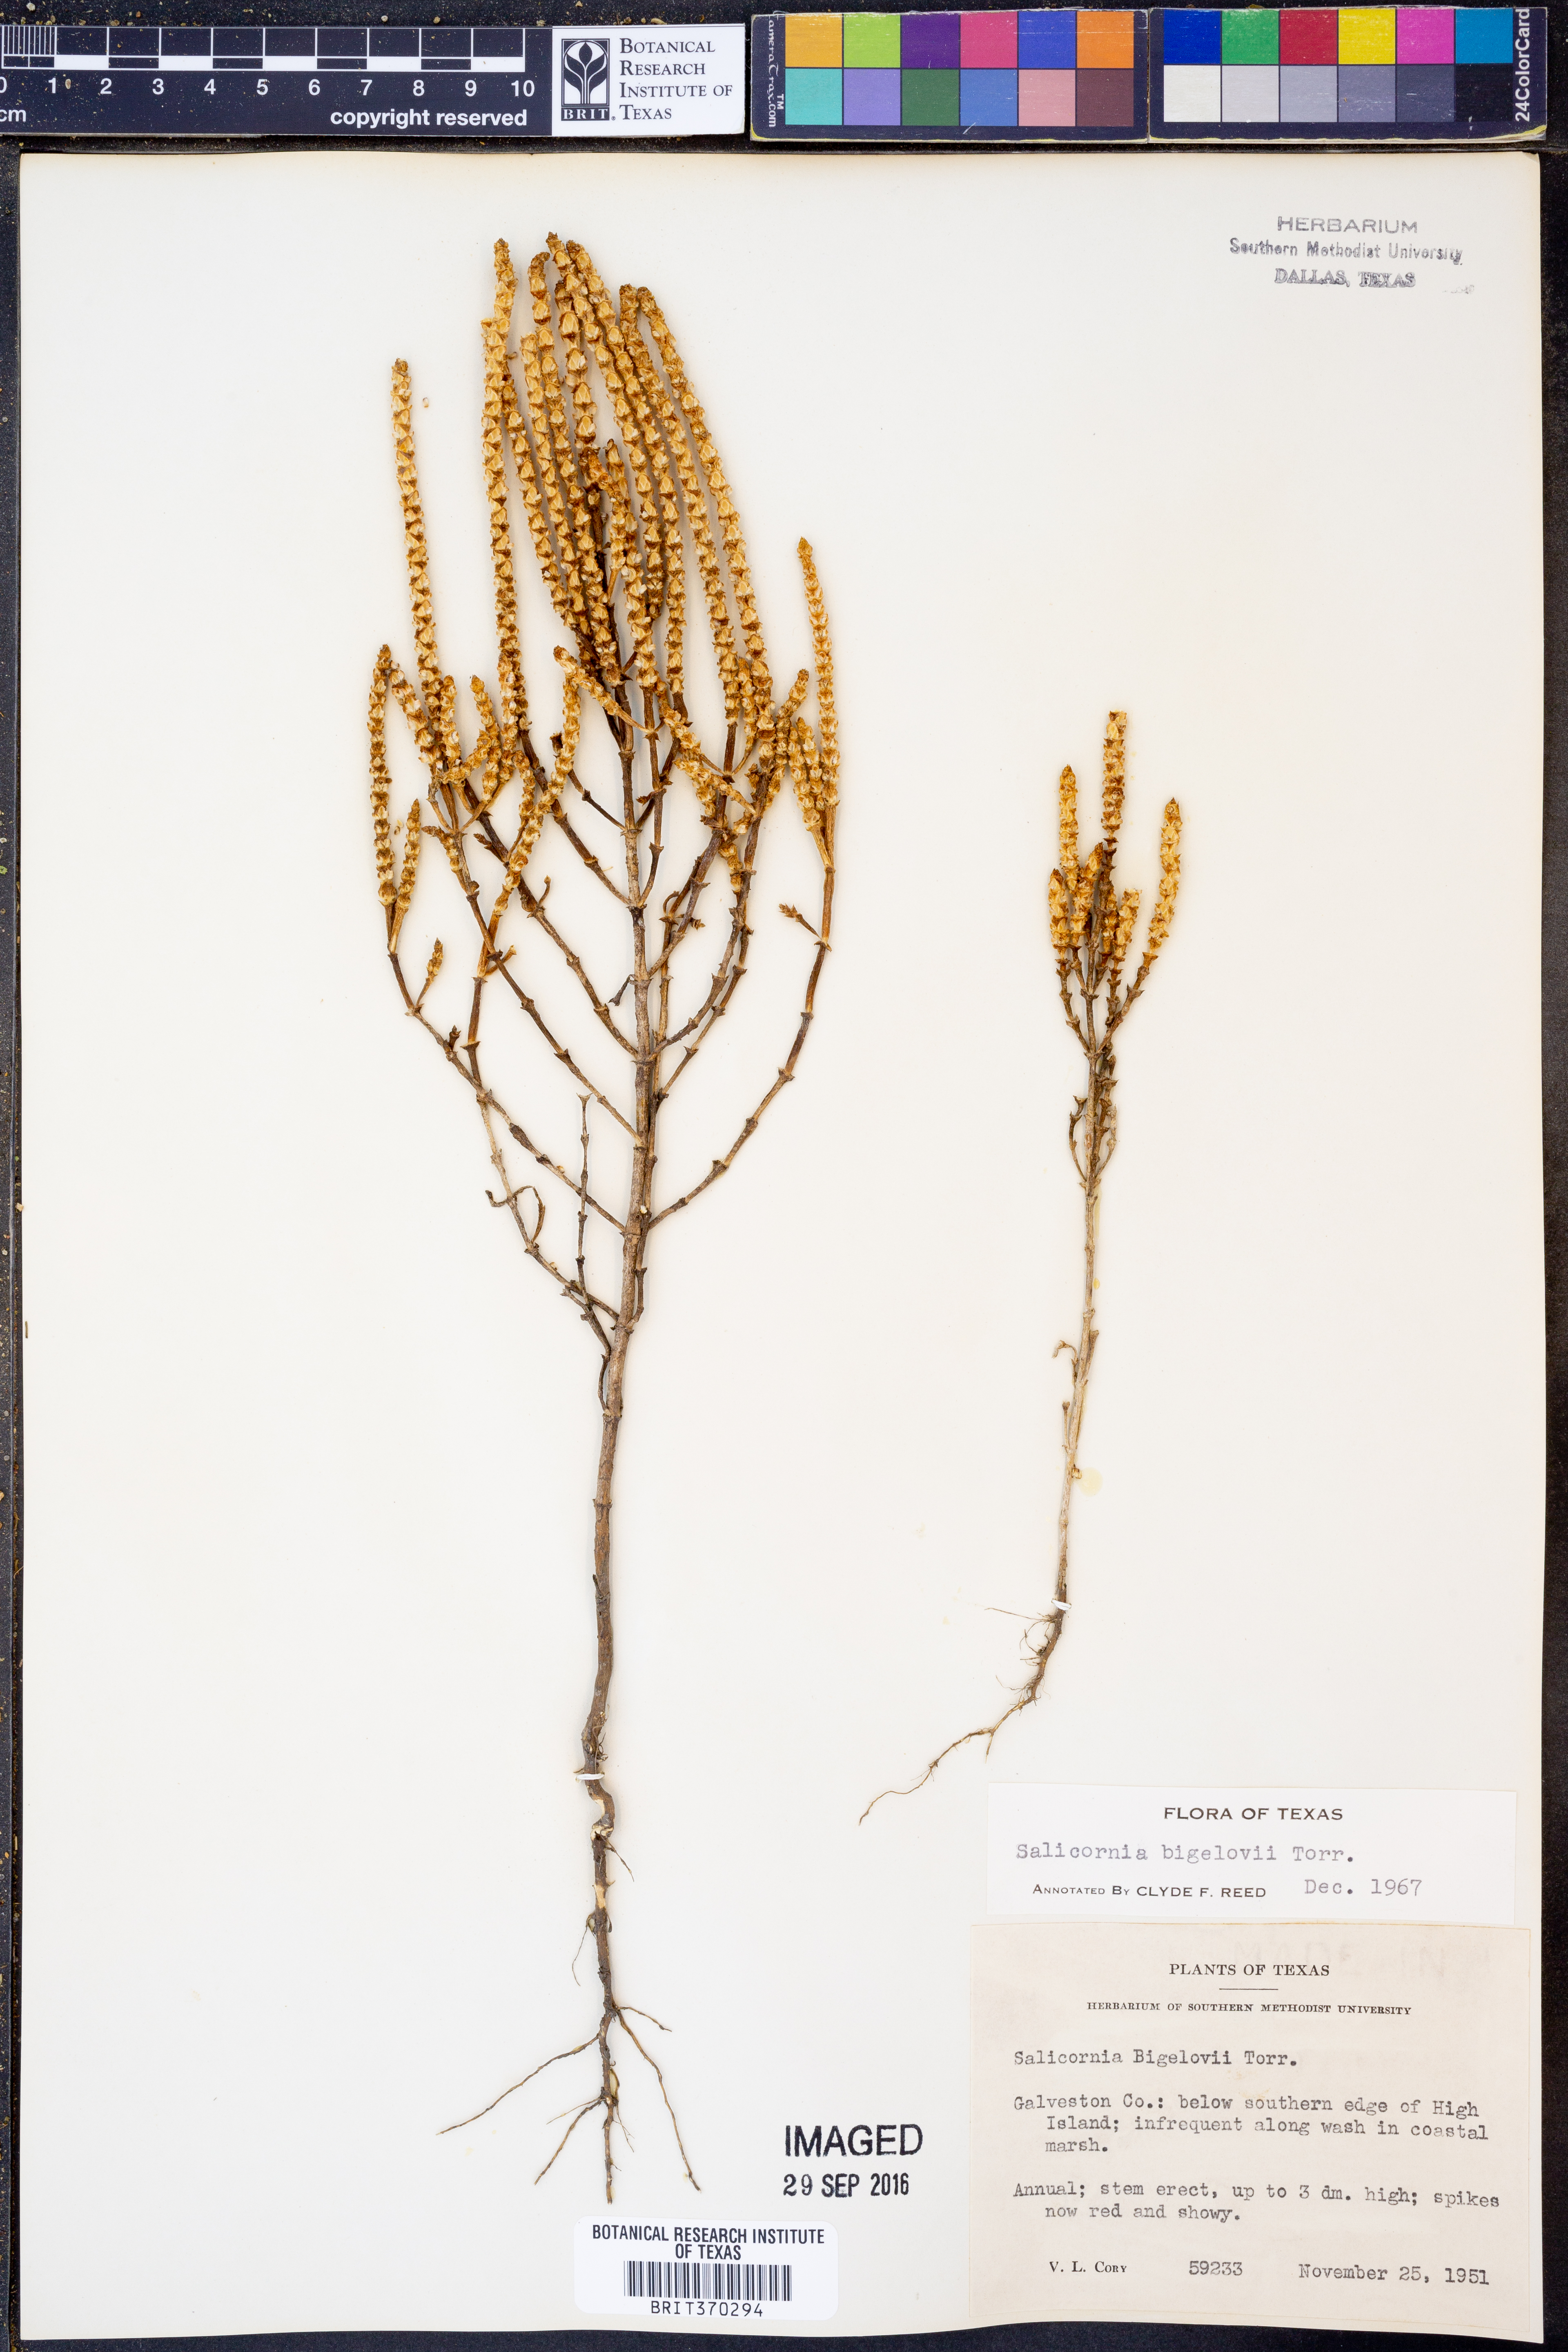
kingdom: Plantae
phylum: Tracheophyta
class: Magnoliopsida
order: Caryophyllales
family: Amaranthaceae
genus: Salicornia
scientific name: Salicornia bigelovii
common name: Dwarf glasswort
